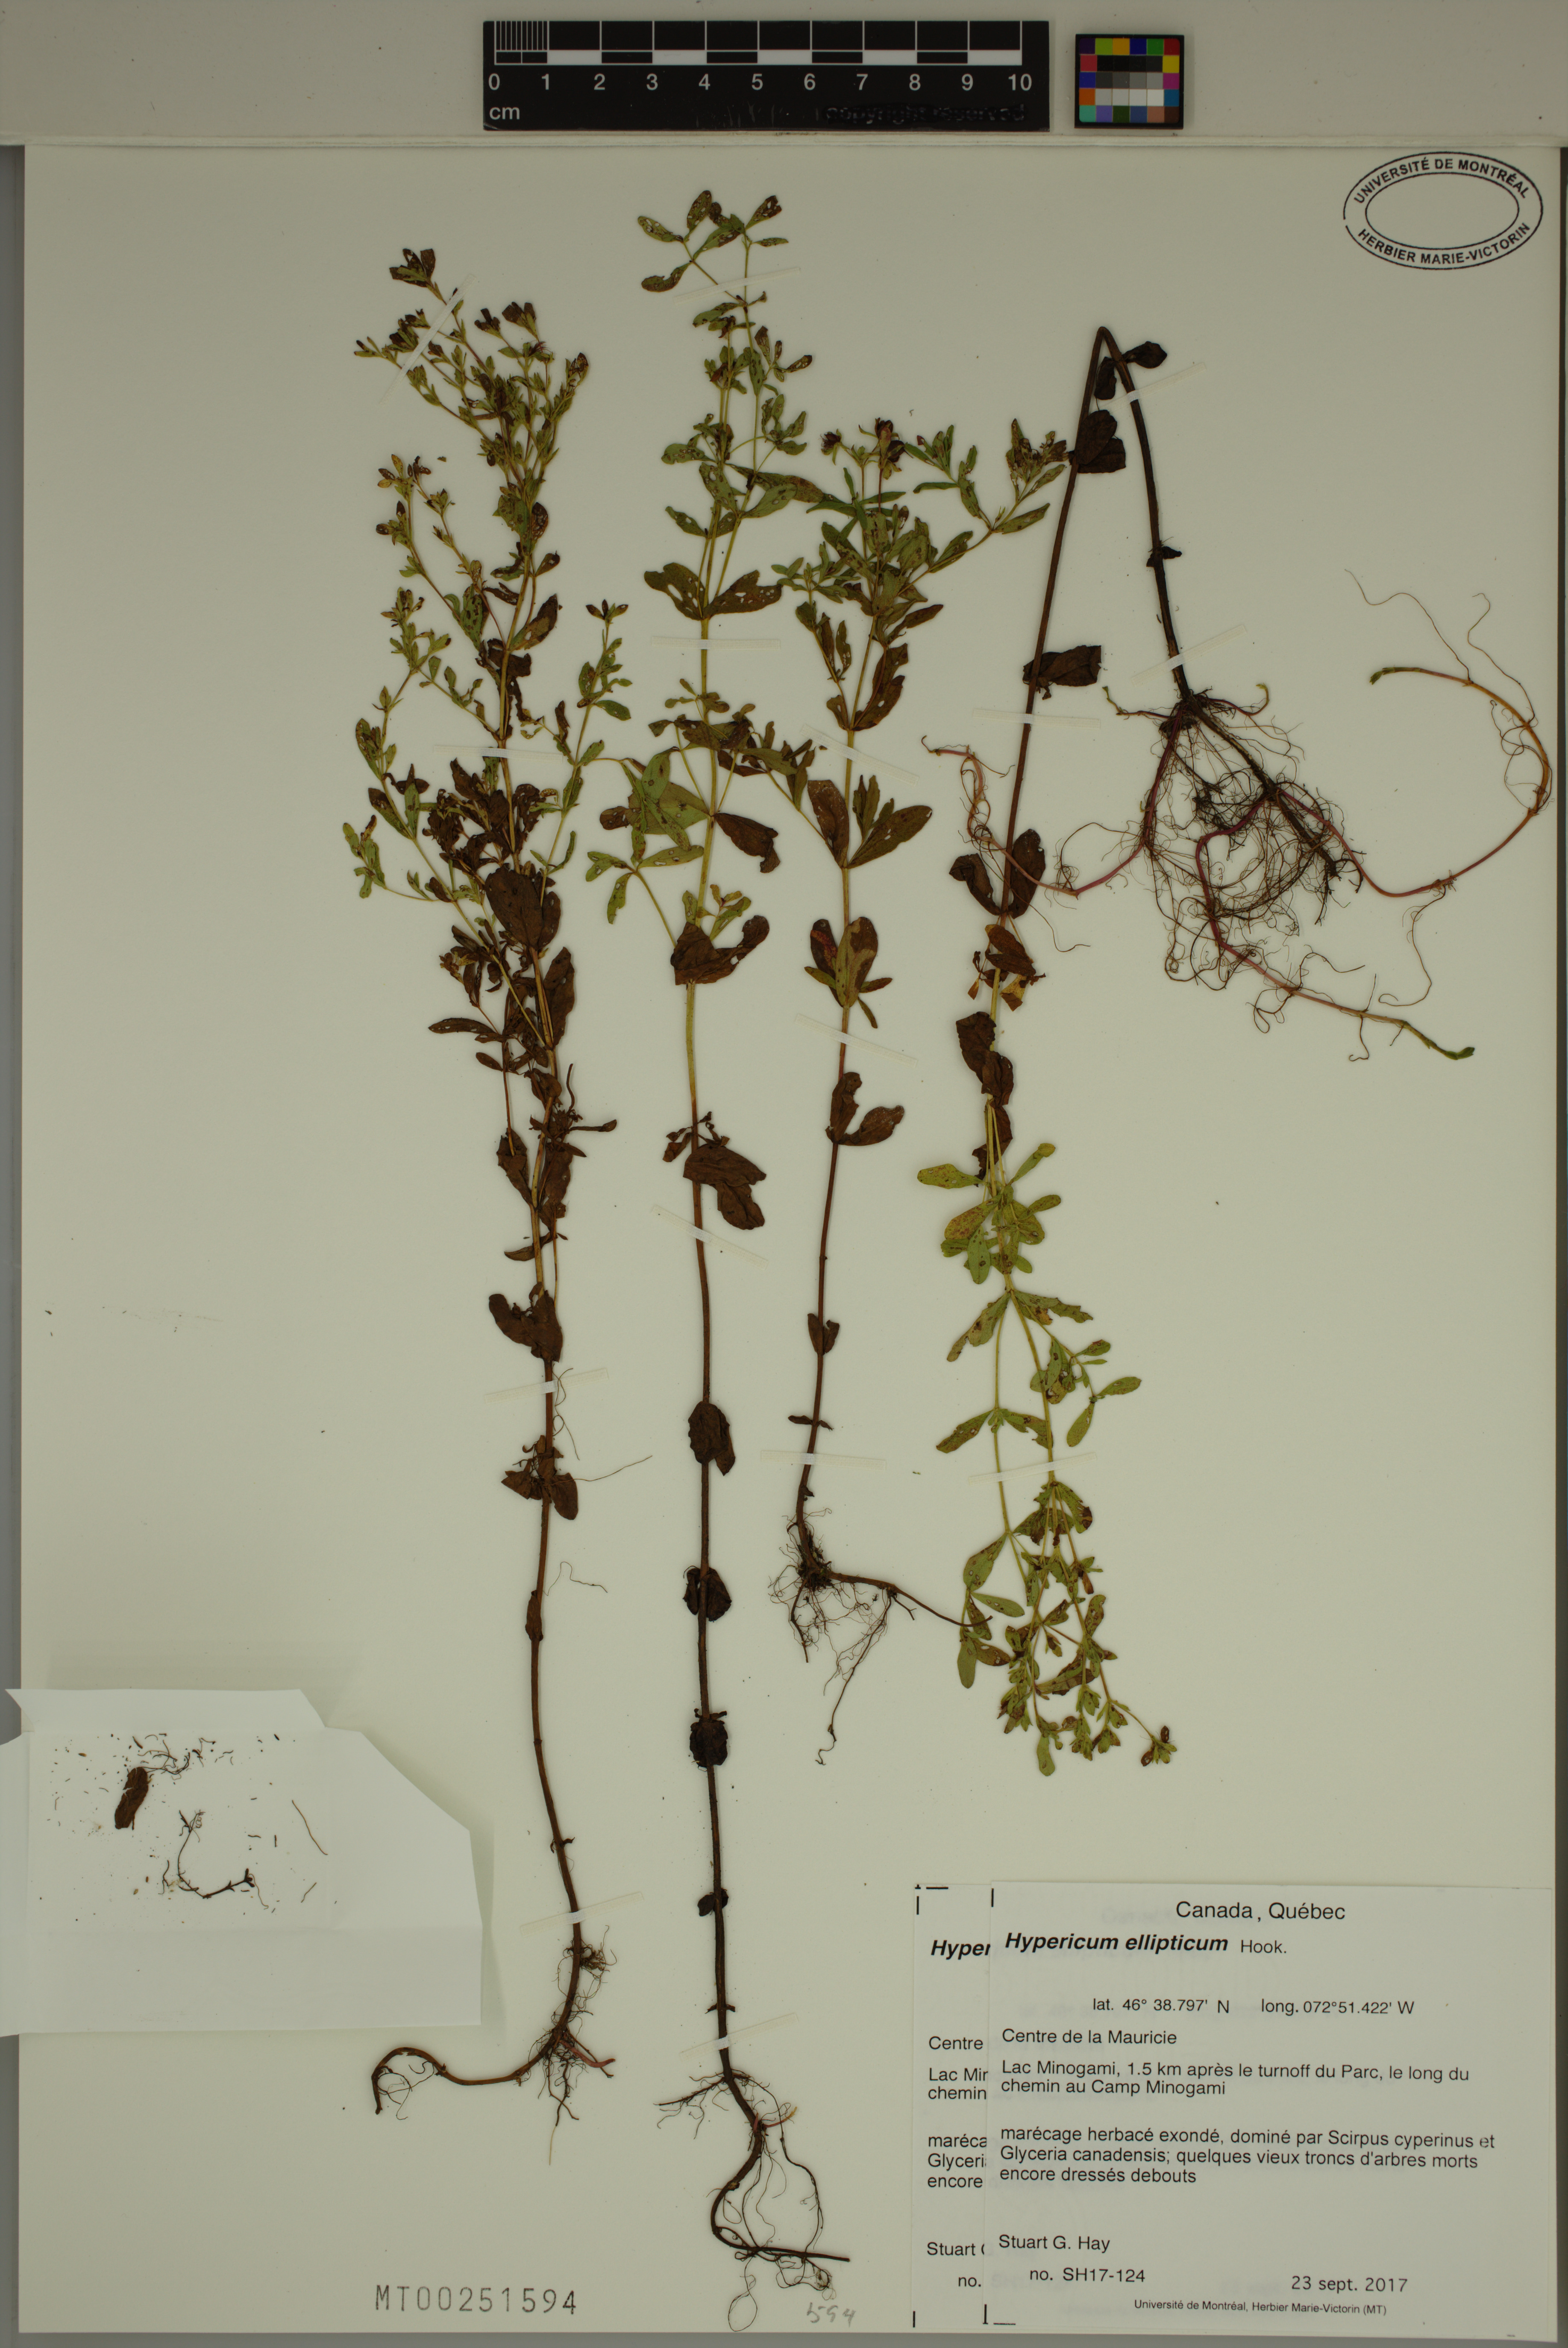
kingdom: Plantae
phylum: Tracheophyta
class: Magnoliopsida
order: Malpighiales
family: Hypericaceae
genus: Hypericum
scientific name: Hypericum ellipticum
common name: Elliptic st. john's-wort
